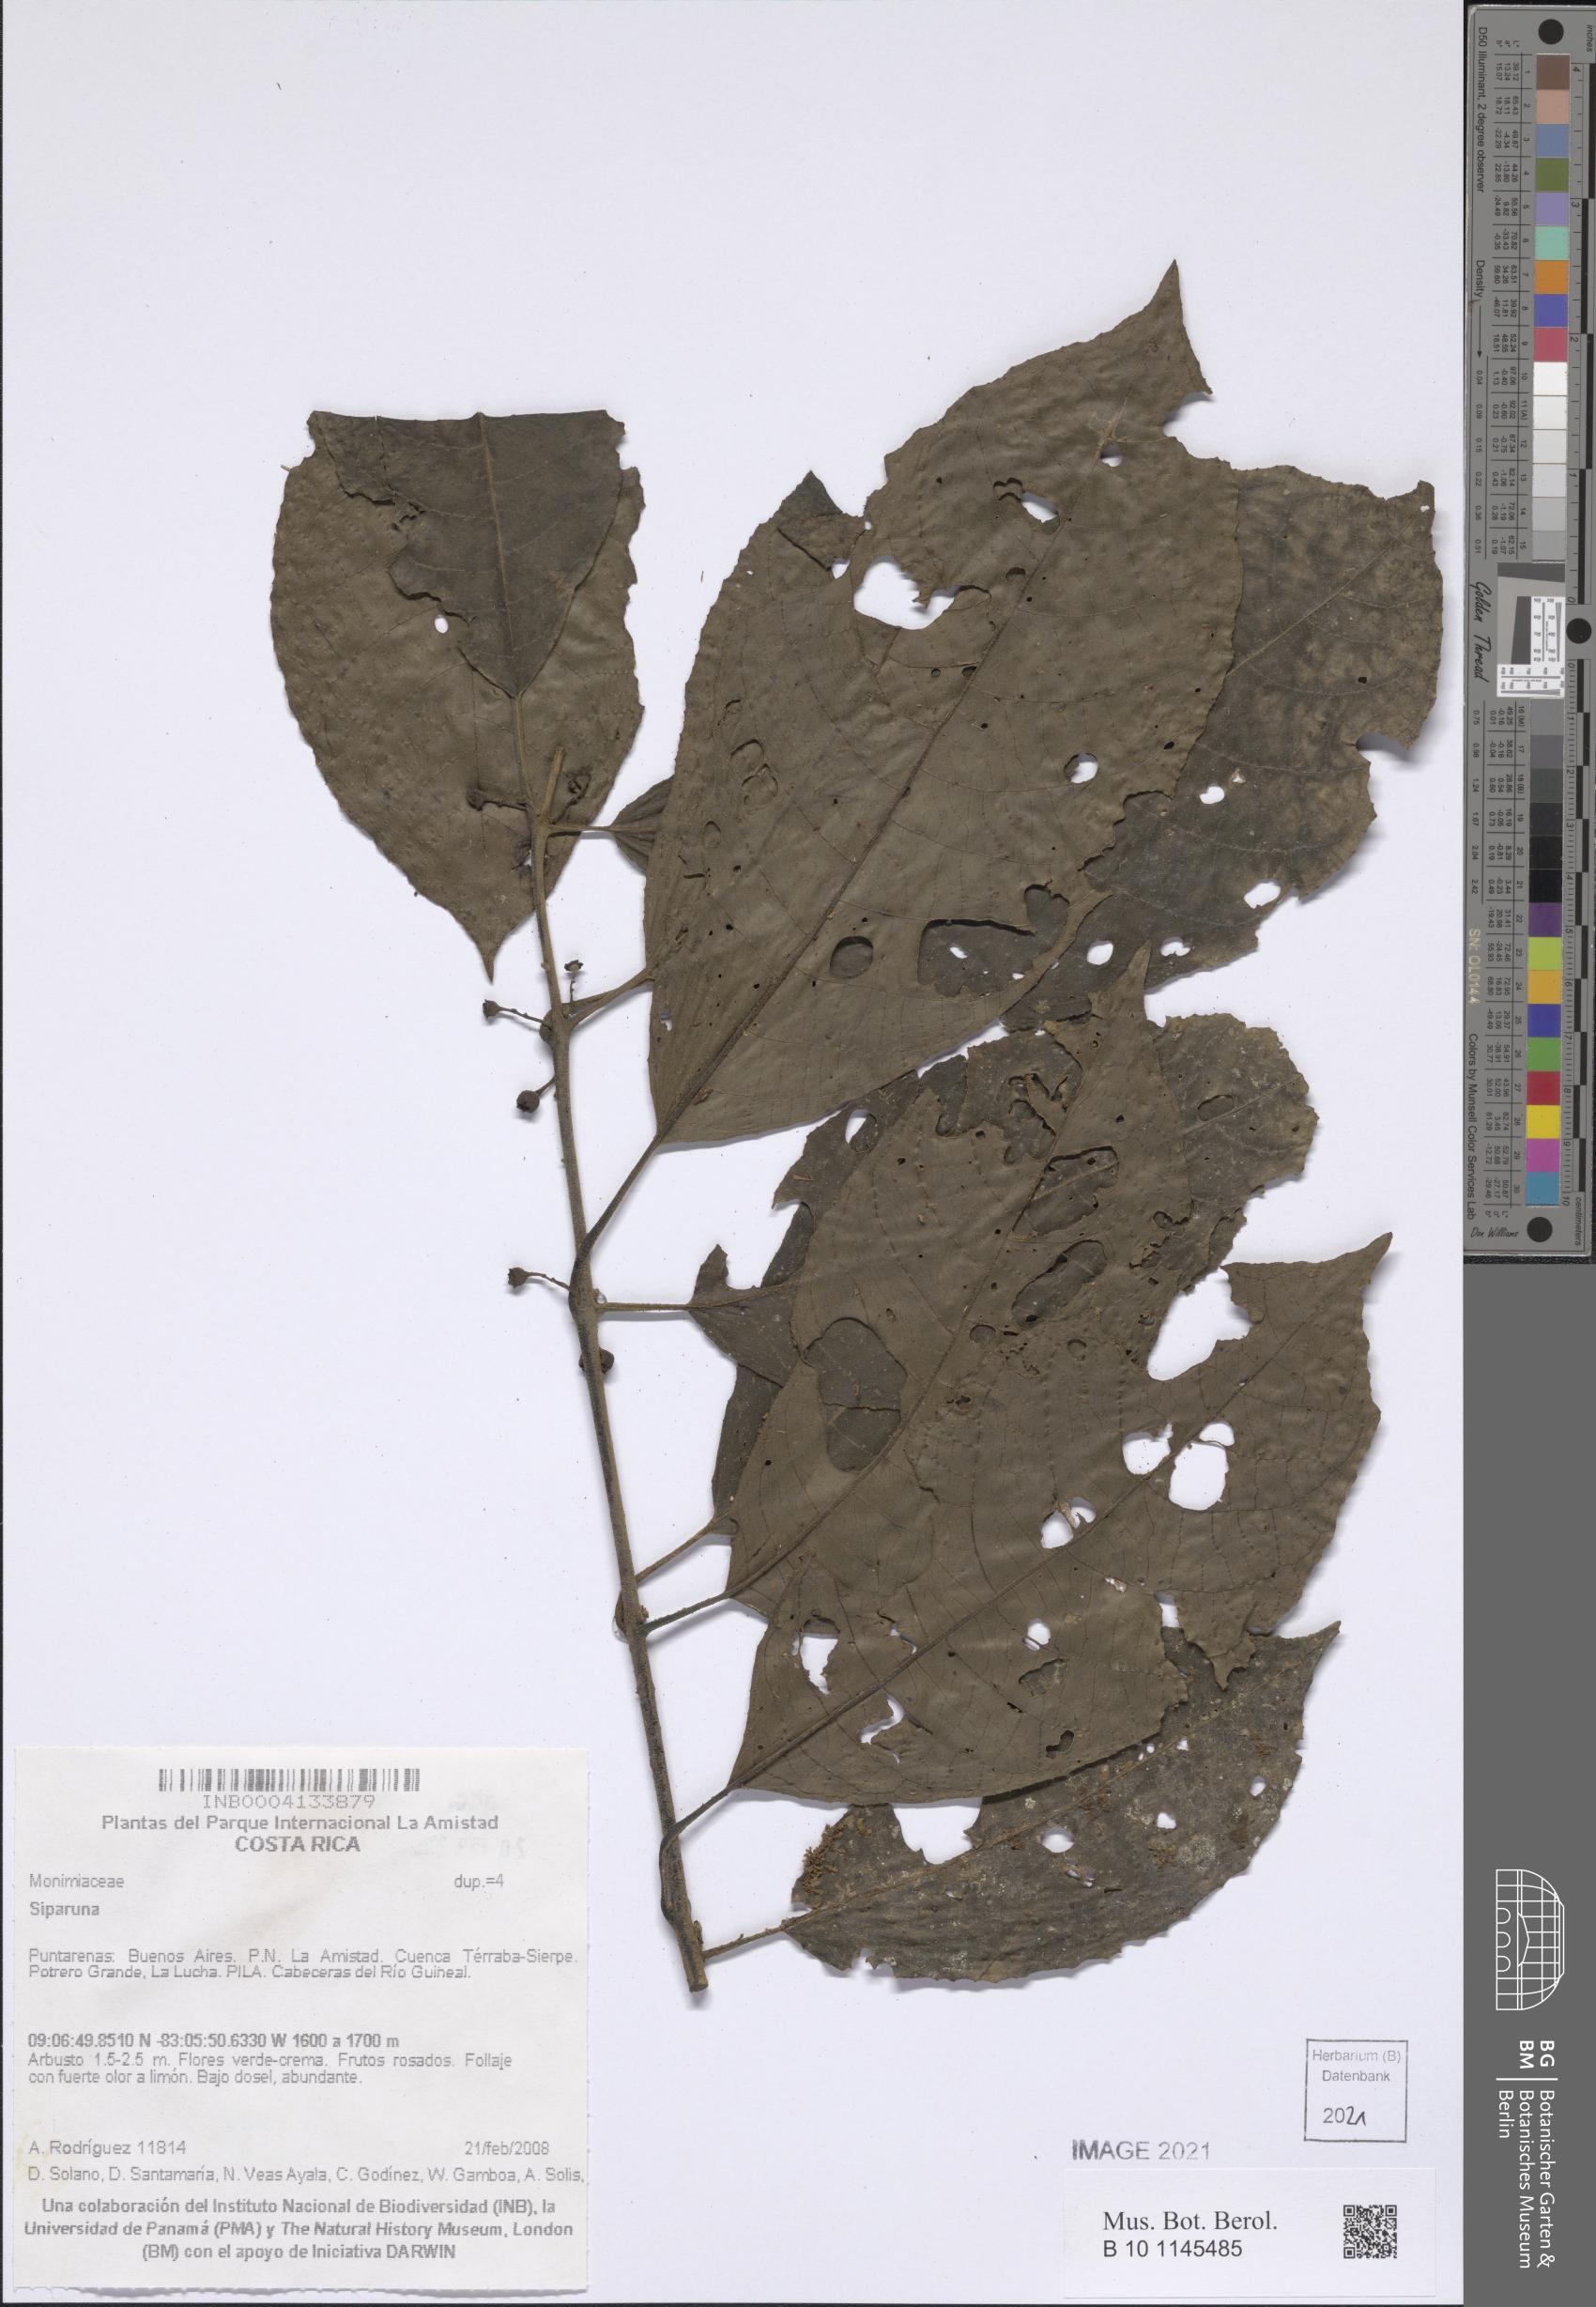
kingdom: Plantae
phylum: Tracheophyta
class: Magnoliopsida
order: Laurales
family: Siparunaceae
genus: Siparuna
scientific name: Siparuna
